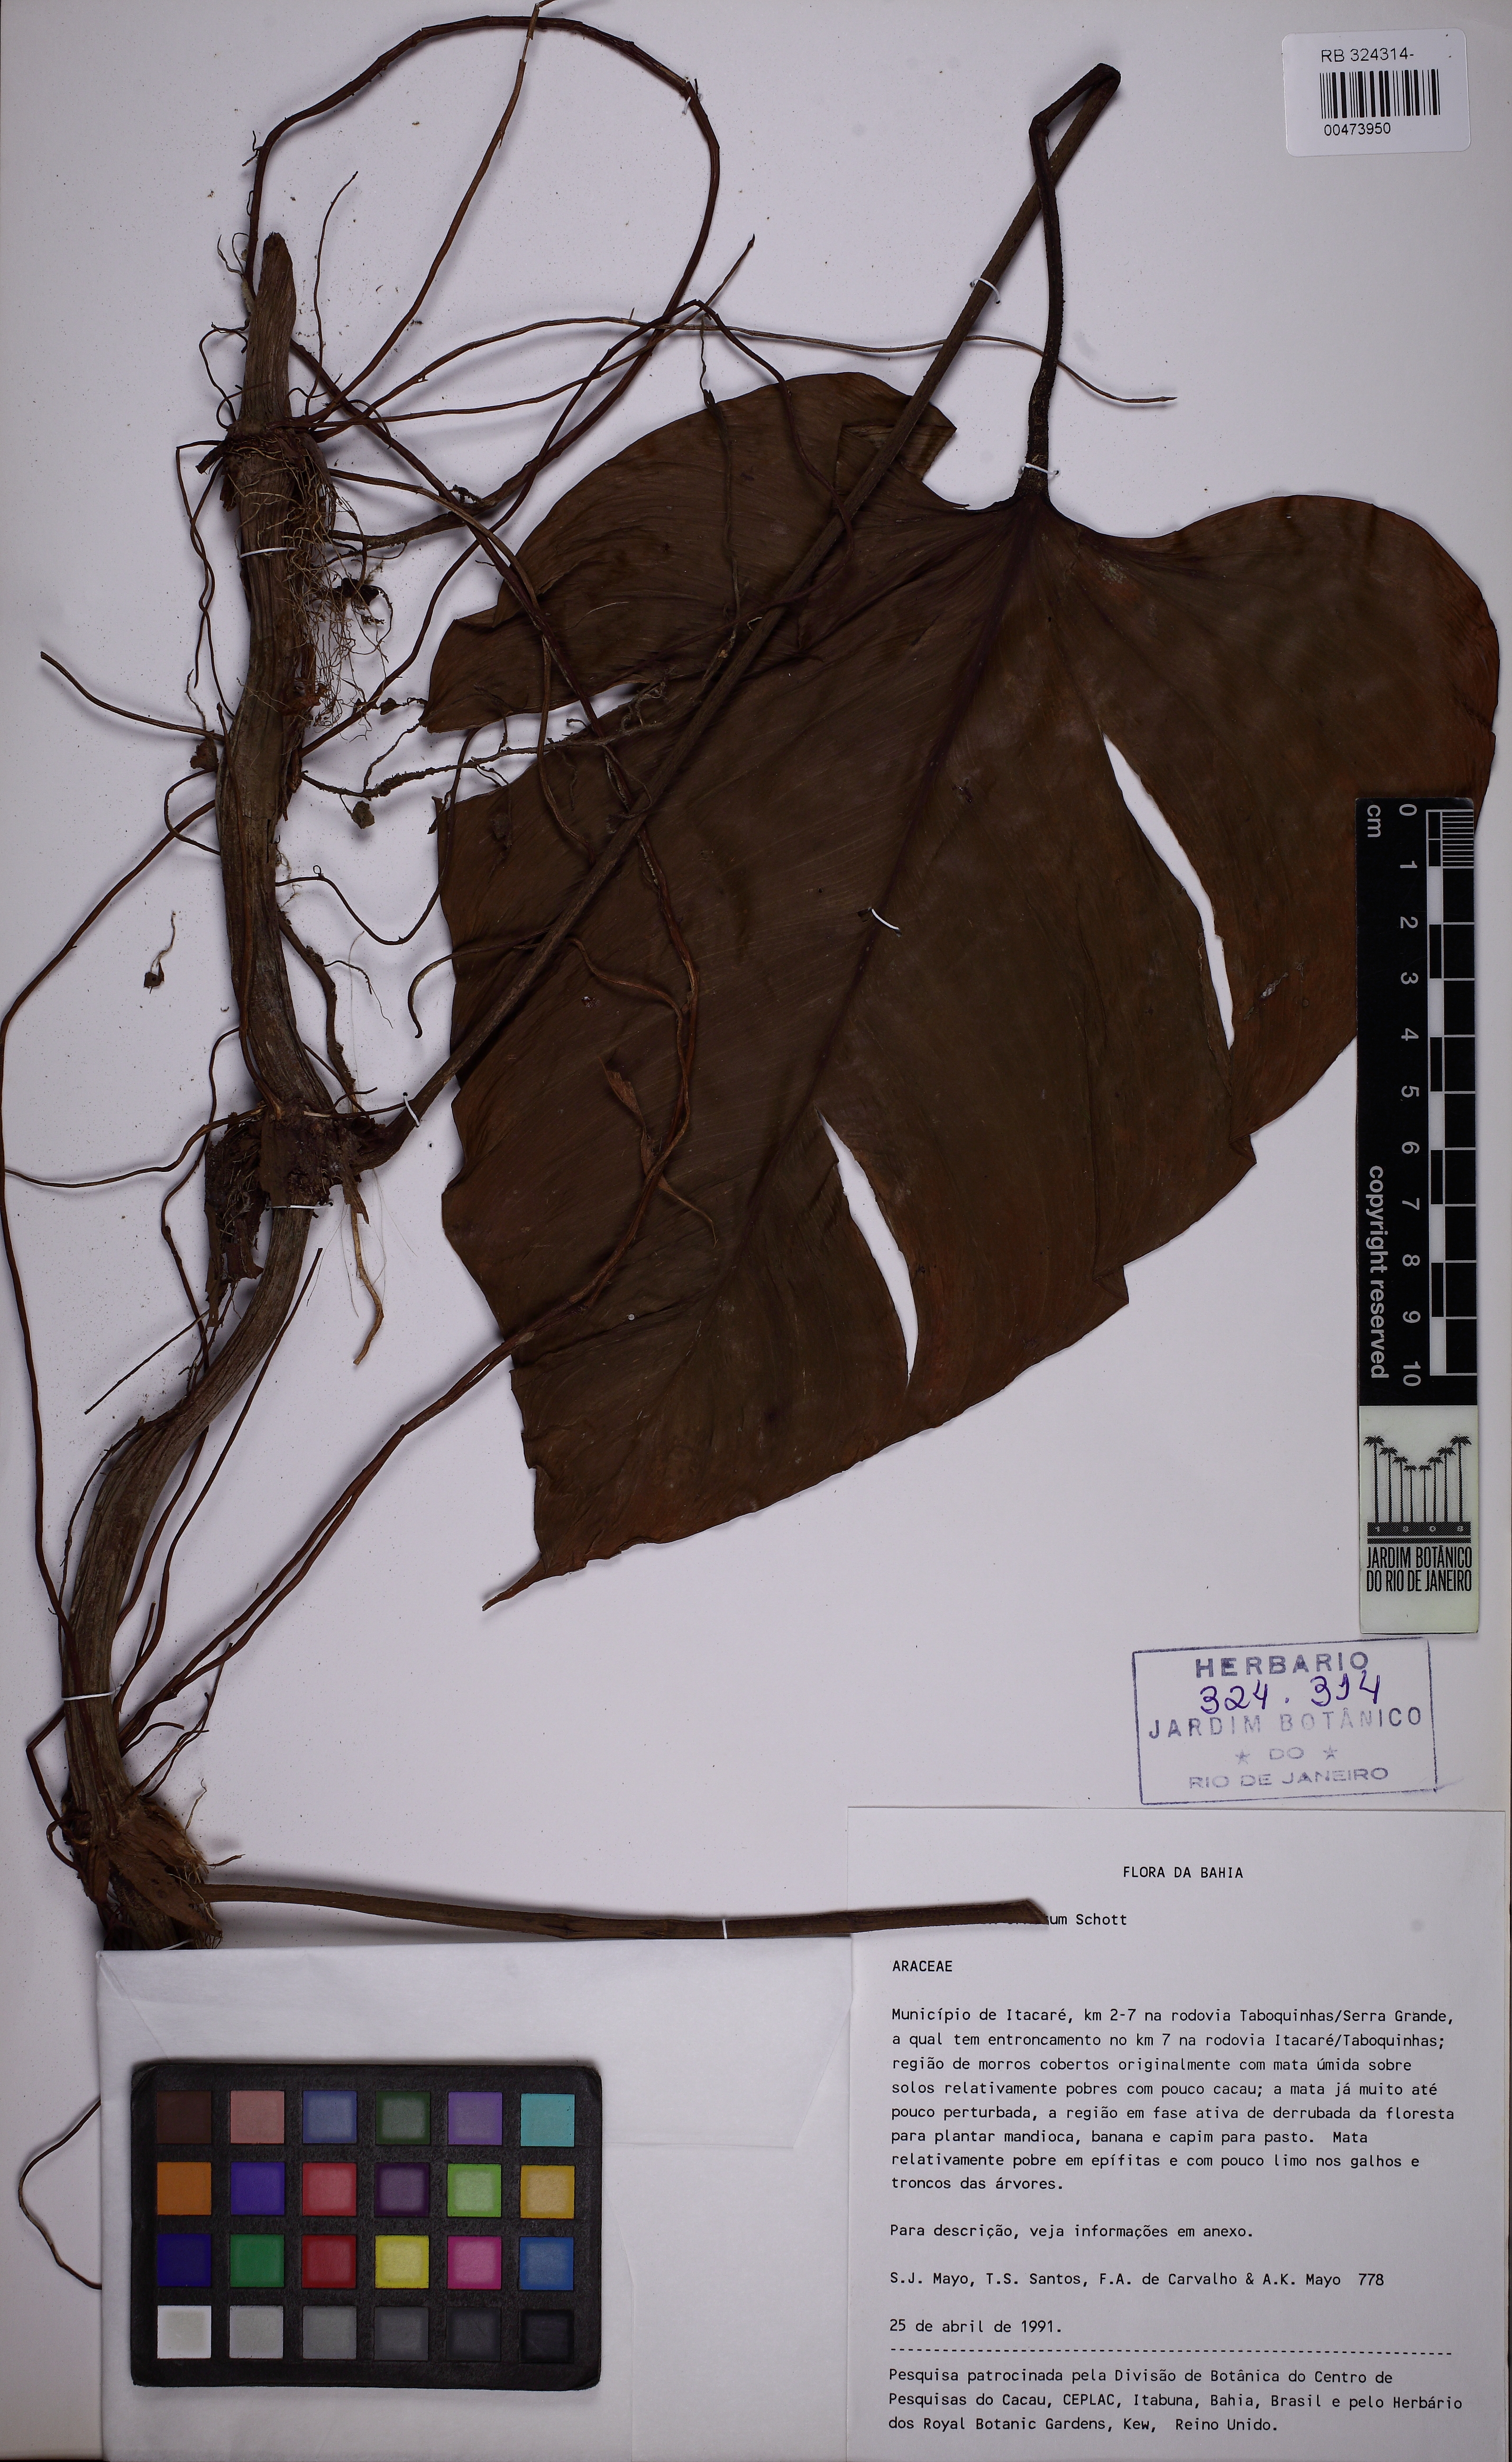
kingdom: Plantae
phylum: Tracheophyta
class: Liliopsida
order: Alismatales
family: Araceae
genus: Philodendron
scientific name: Philodendron ornatum
